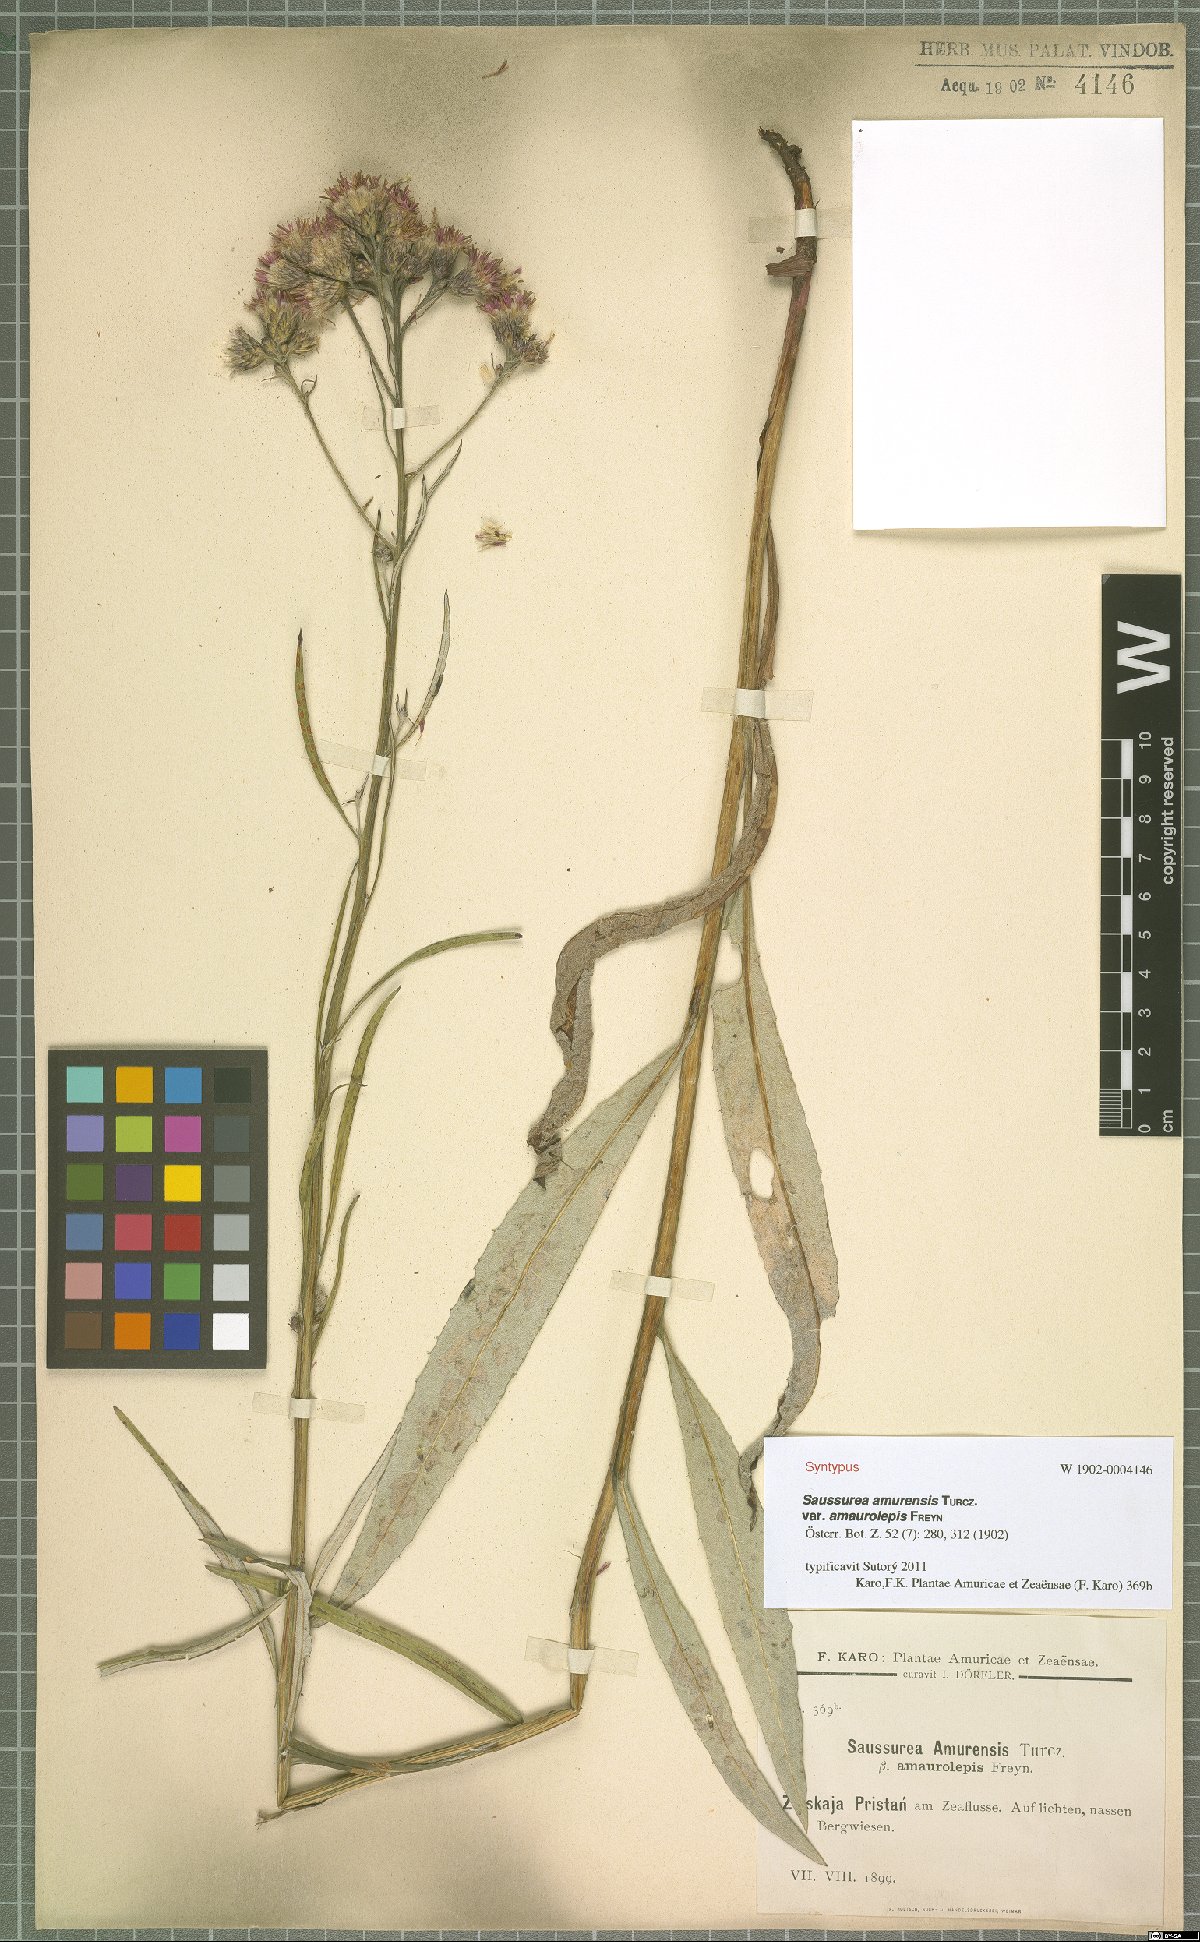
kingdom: Plantae
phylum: Tracheophyta
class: Magnoliopsida
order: Asterales
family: Asteraceae
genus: Saussurea
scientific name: Saussurea amurensis
